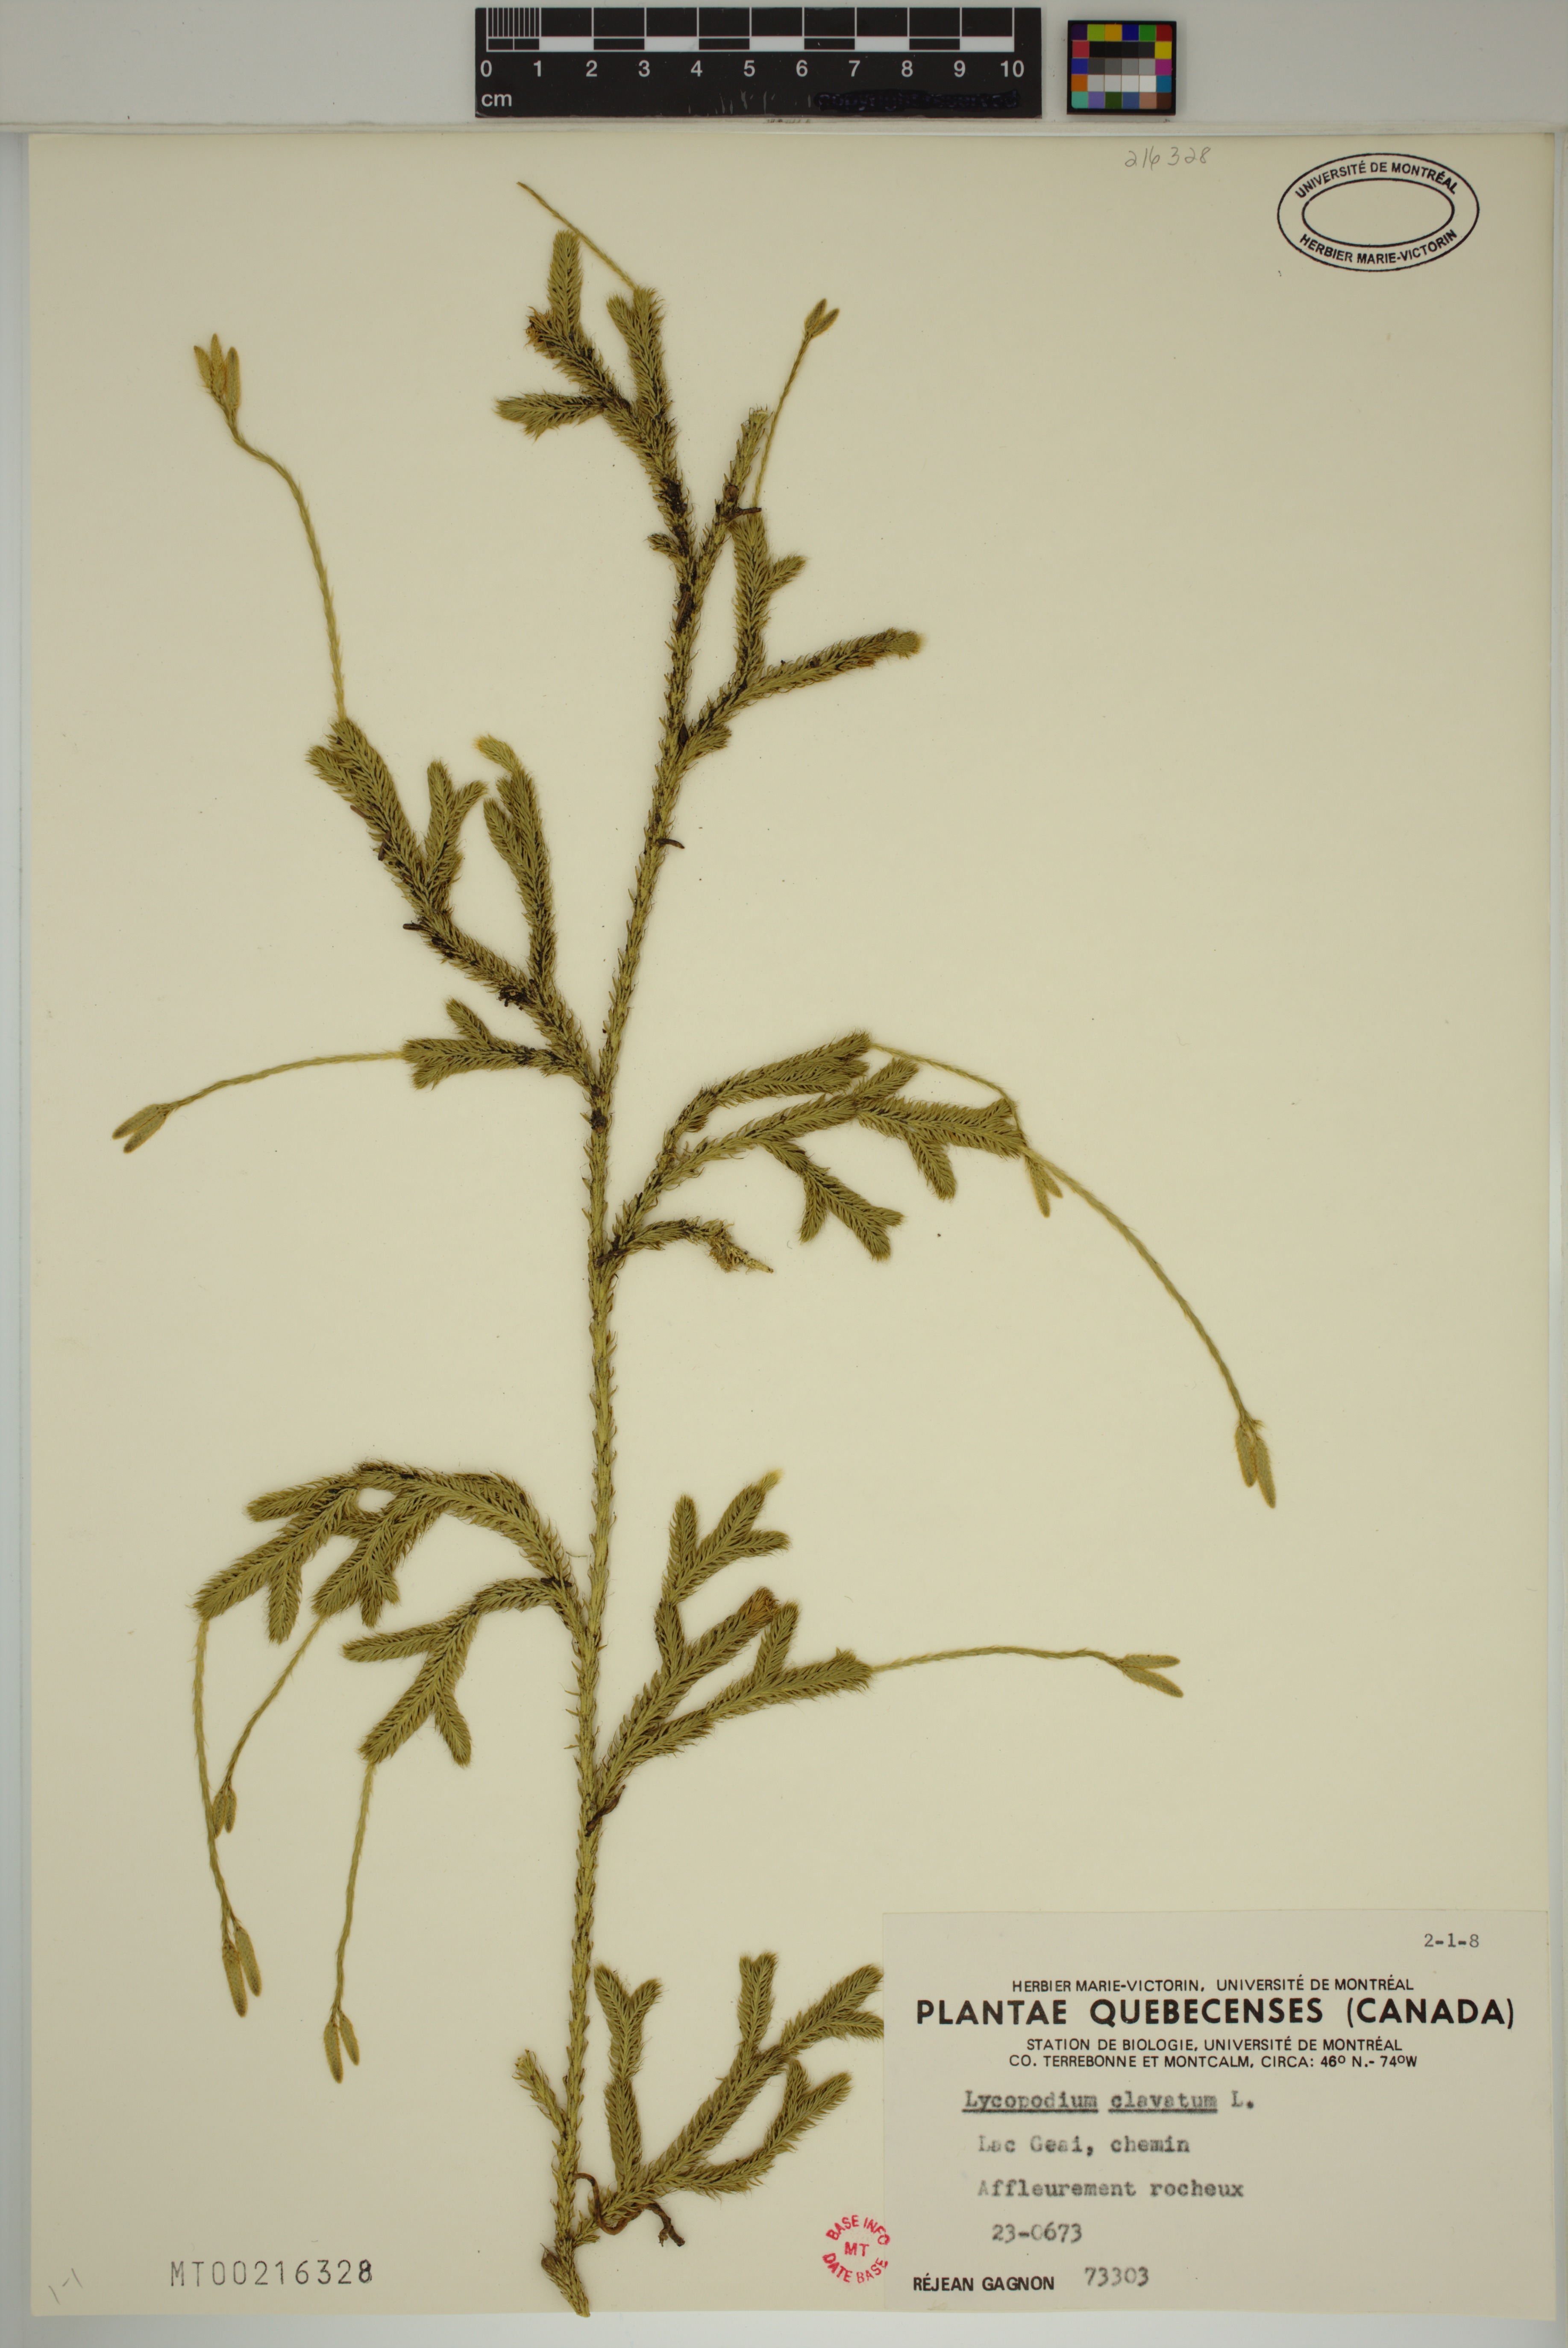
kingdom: Plantae
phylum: Tracheophyta
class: Lycopodiopsida
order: Lycopodiales
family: Lycopodiaceae
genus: Lycopodium
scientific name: Lycopodium clavatum
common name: Stag's-horn clubmoss
